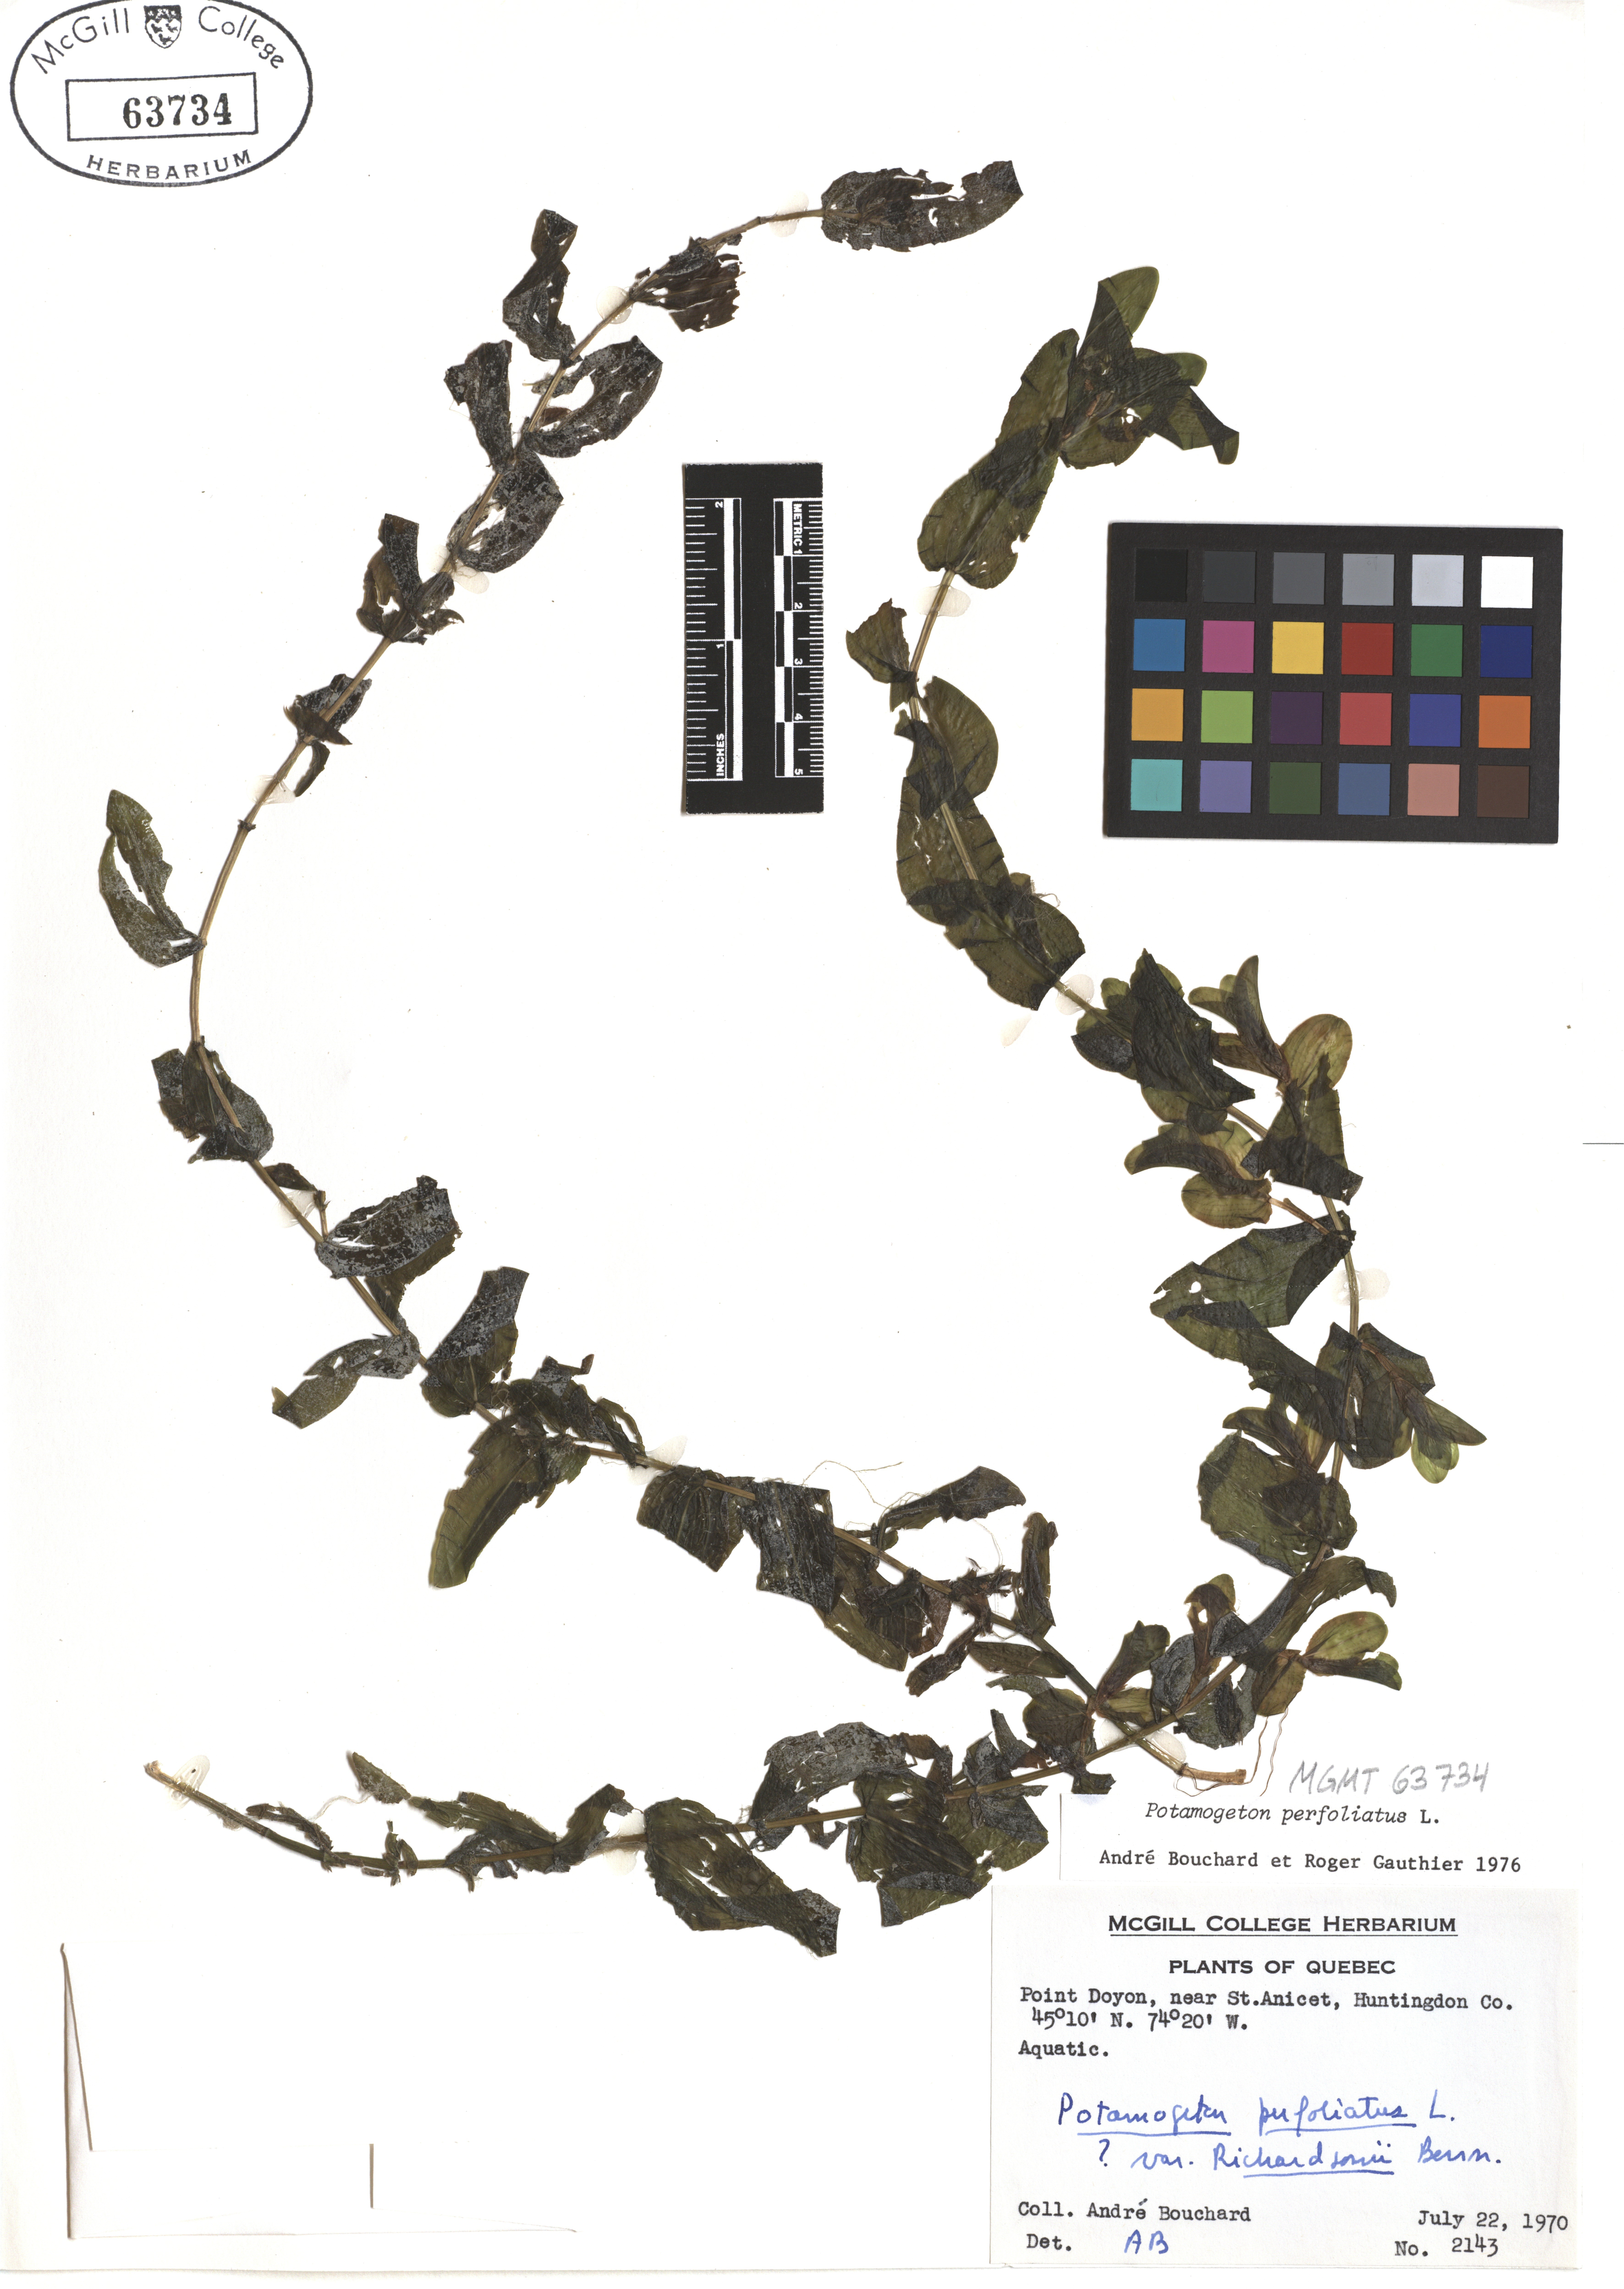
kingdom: Plantae
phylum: Tracheophyta
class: Liliopsida
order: Alismatales
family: Potamogetonaceae
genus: Potamogeton
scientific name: Potamogeton perfoliatus
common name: Perfoliate pondweed
